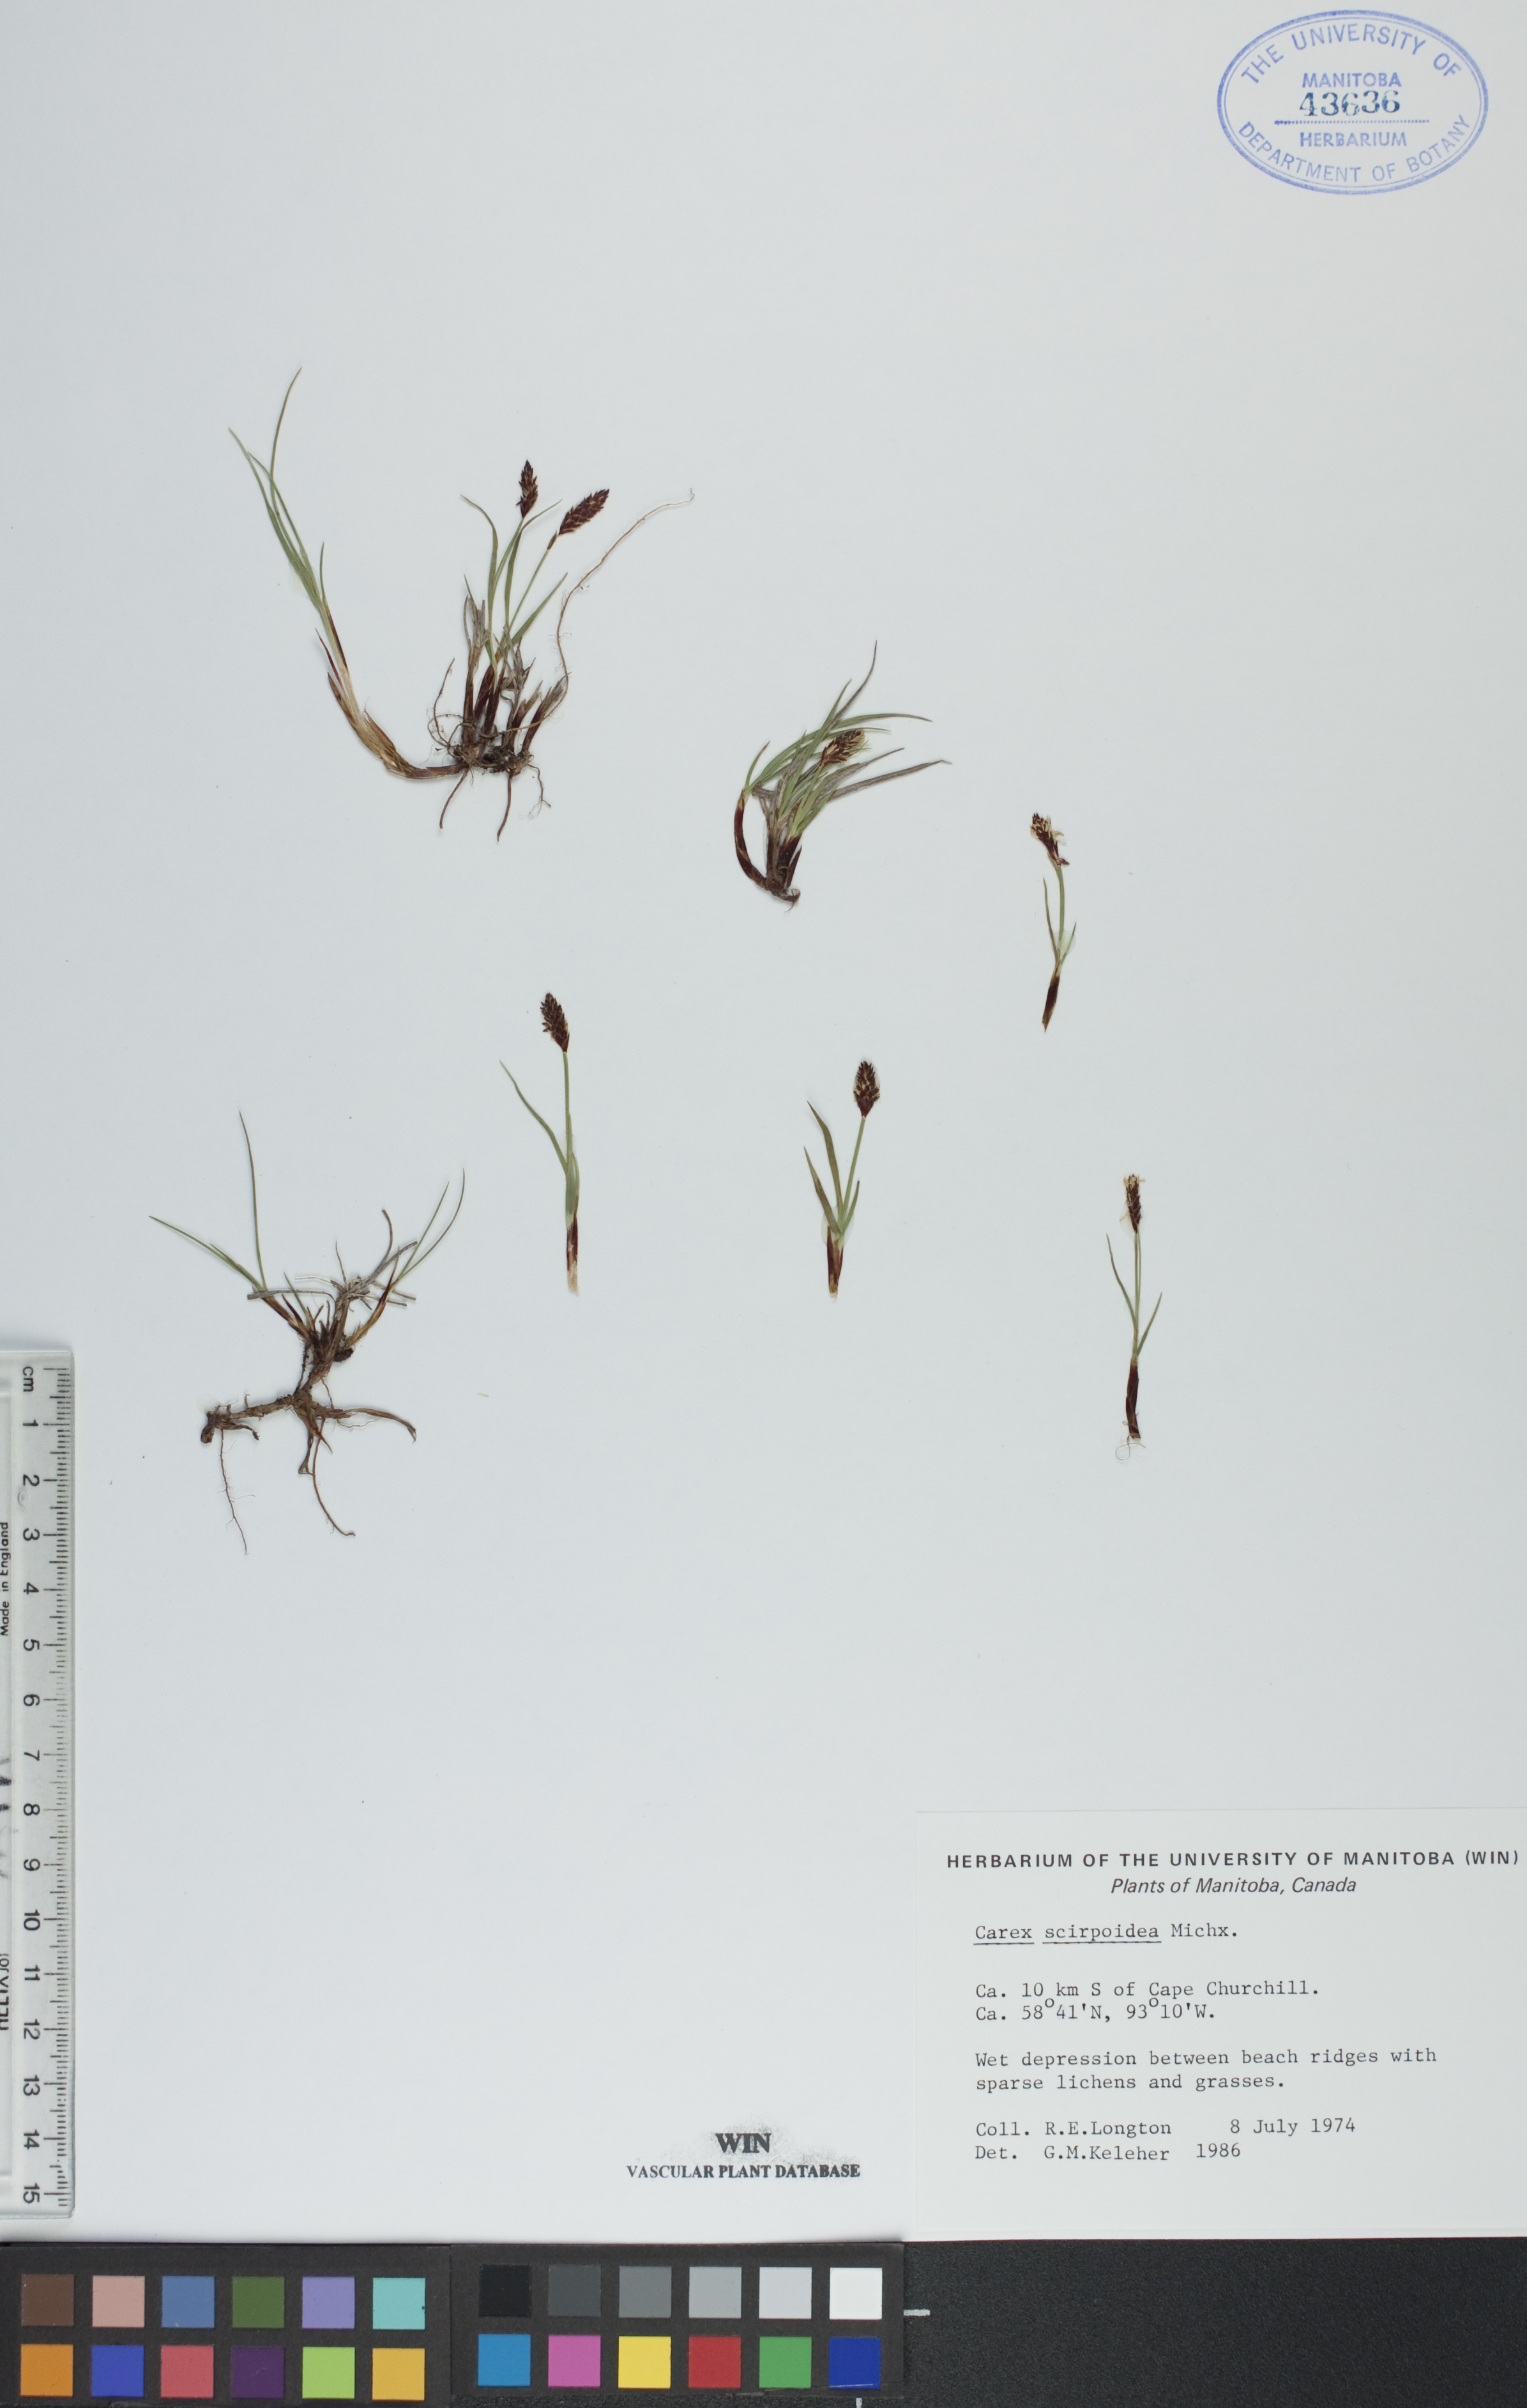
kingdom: Plantae
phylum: Tracheophyta
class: Liliopsida
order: Poales
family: Cyperaceae
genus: Carex
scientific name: Carex scirpoidea
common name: Canada single-spike sedge
